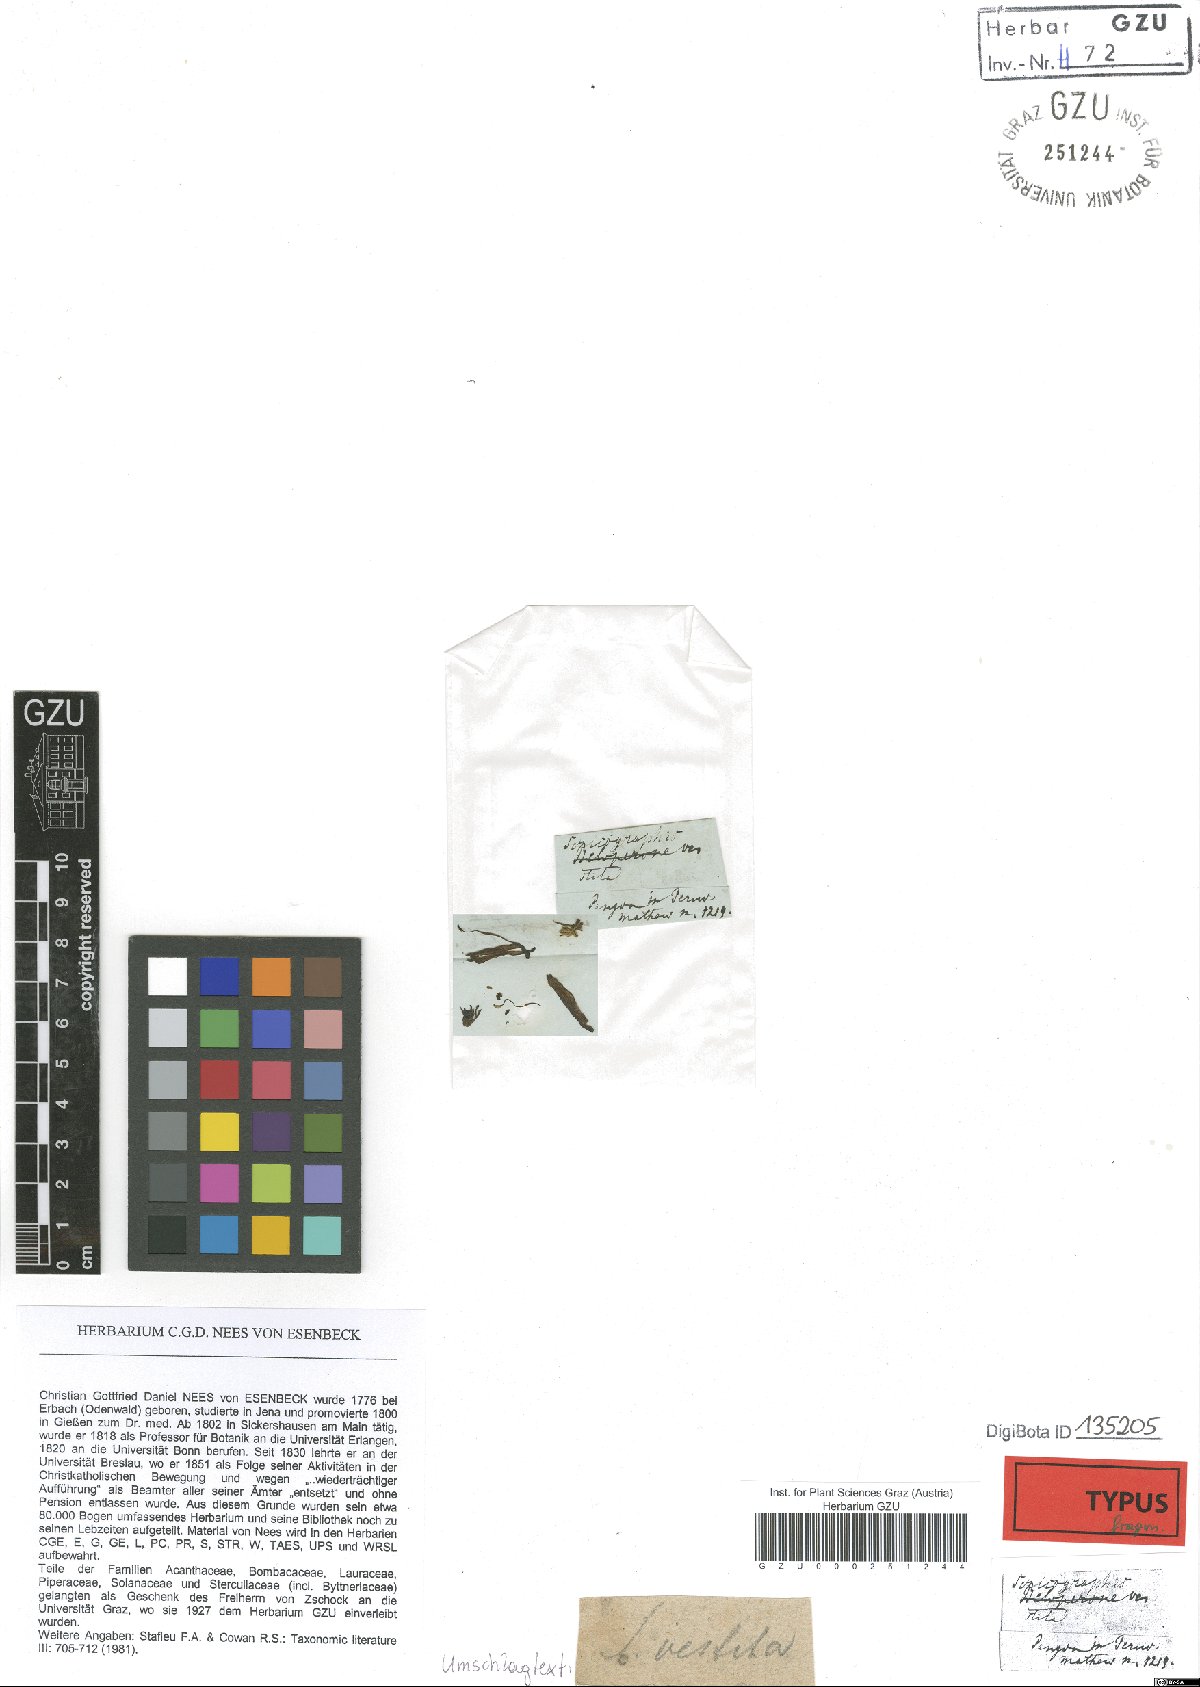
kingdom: Plantae
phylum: Tracheophyta
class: Magnoliopsida
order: Lamiales
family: Acanthaceae
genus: Justicia
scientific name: Justicia Sericographis vestita
